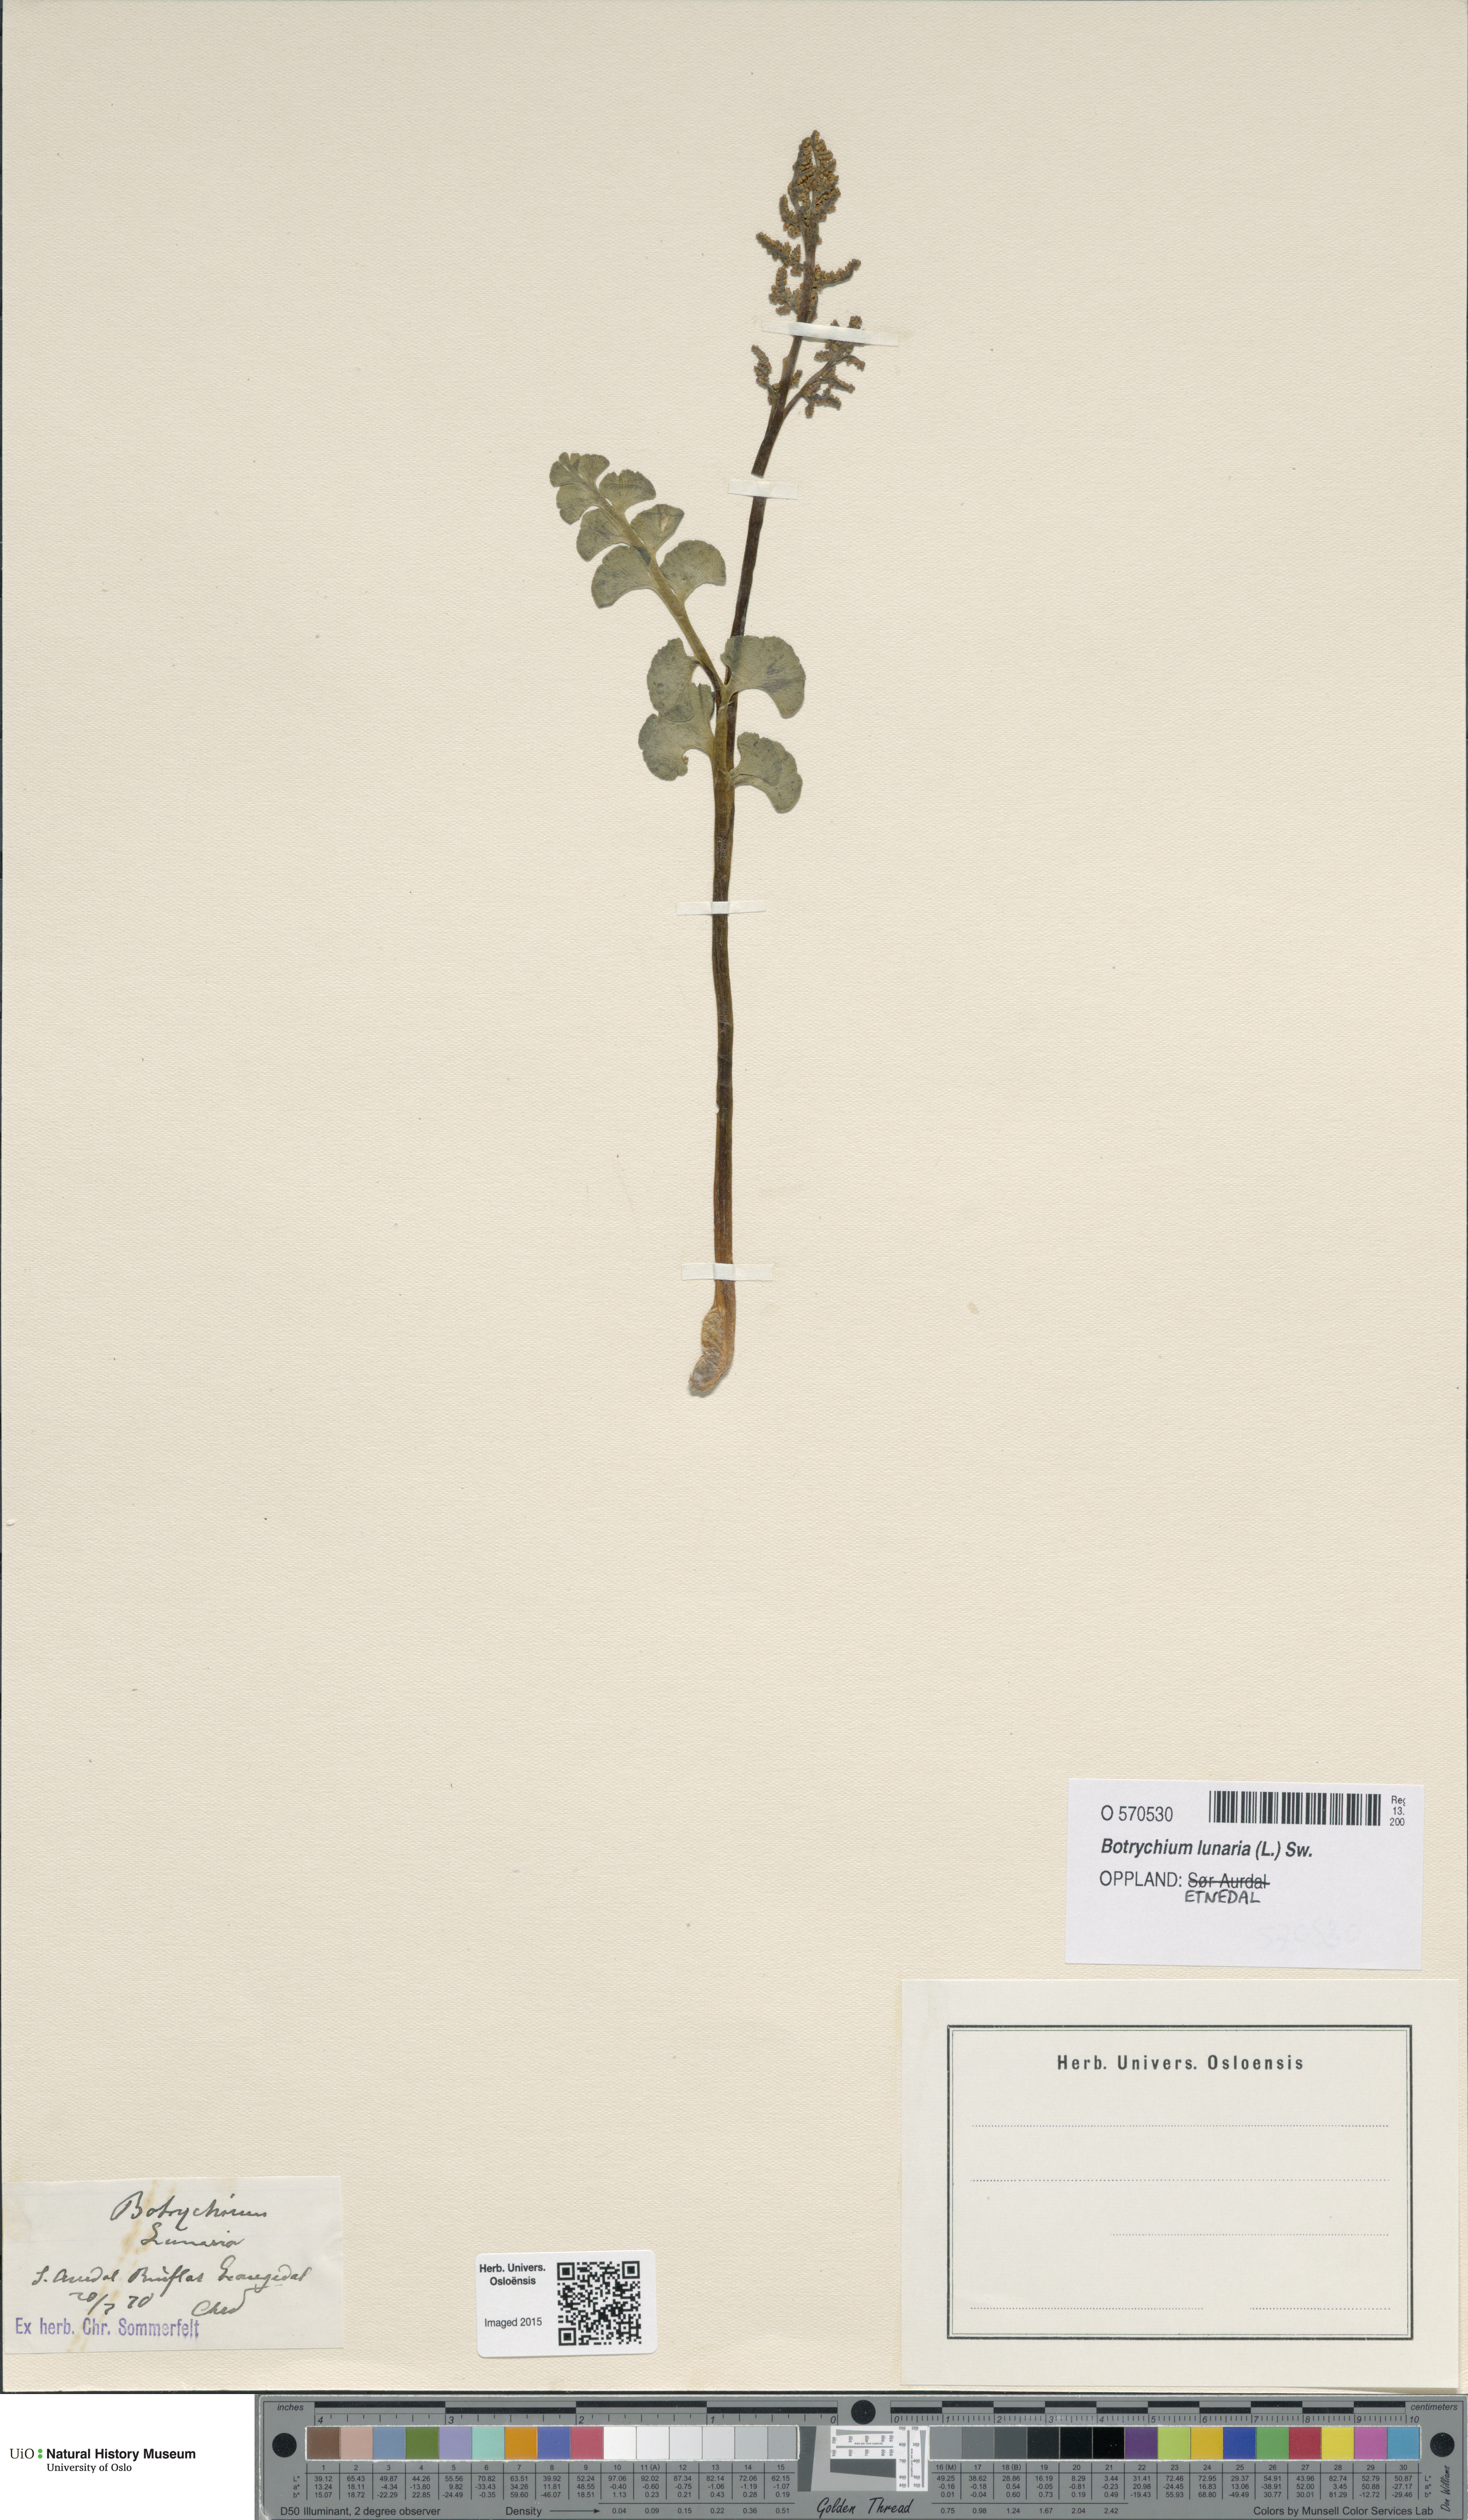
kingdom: Plantae
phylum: Tracheophyta
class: Polypodiopsida
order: Ophioglossales
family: Ophioglossaceae
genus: Botrychium
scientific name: Botrychium lunaria
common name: Moonwort
